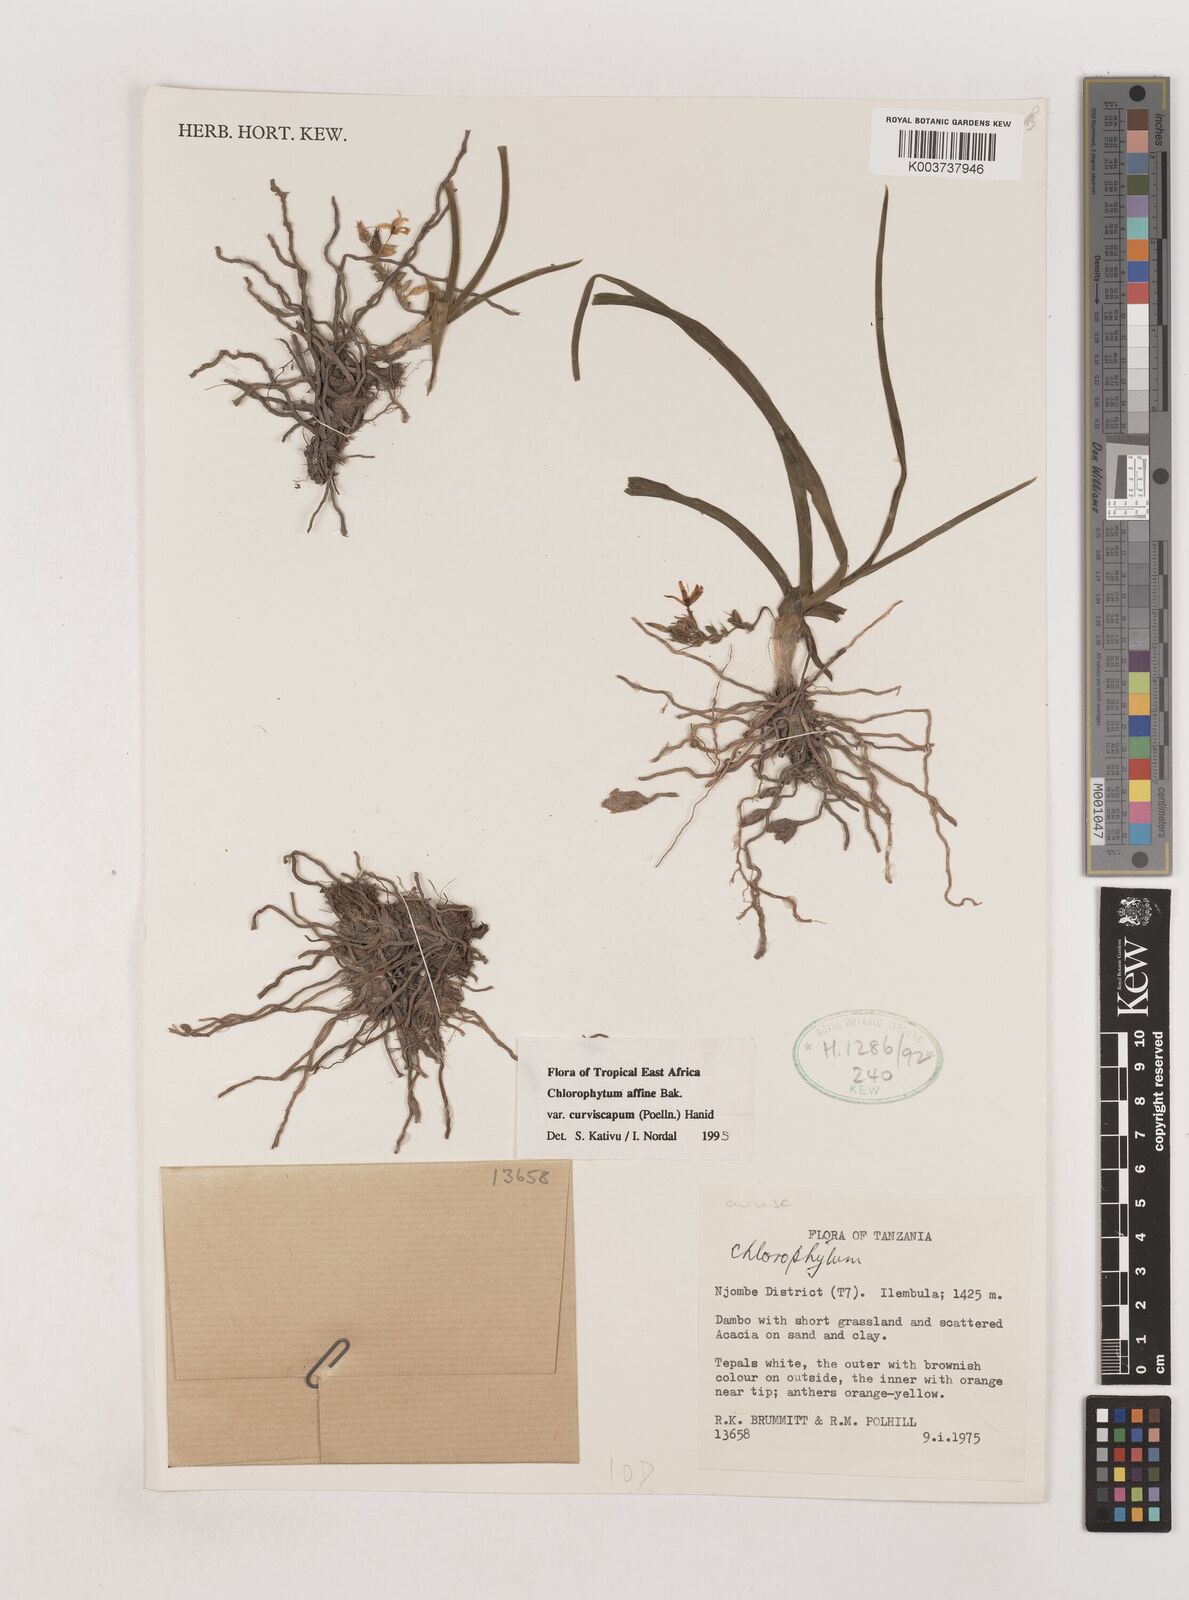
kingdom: Plantae
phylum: Tracheophyta
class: Liliopsida
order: Asparagales
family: Asparagaceae
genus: Chlorophytum
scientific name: Chlorophytum tordense
